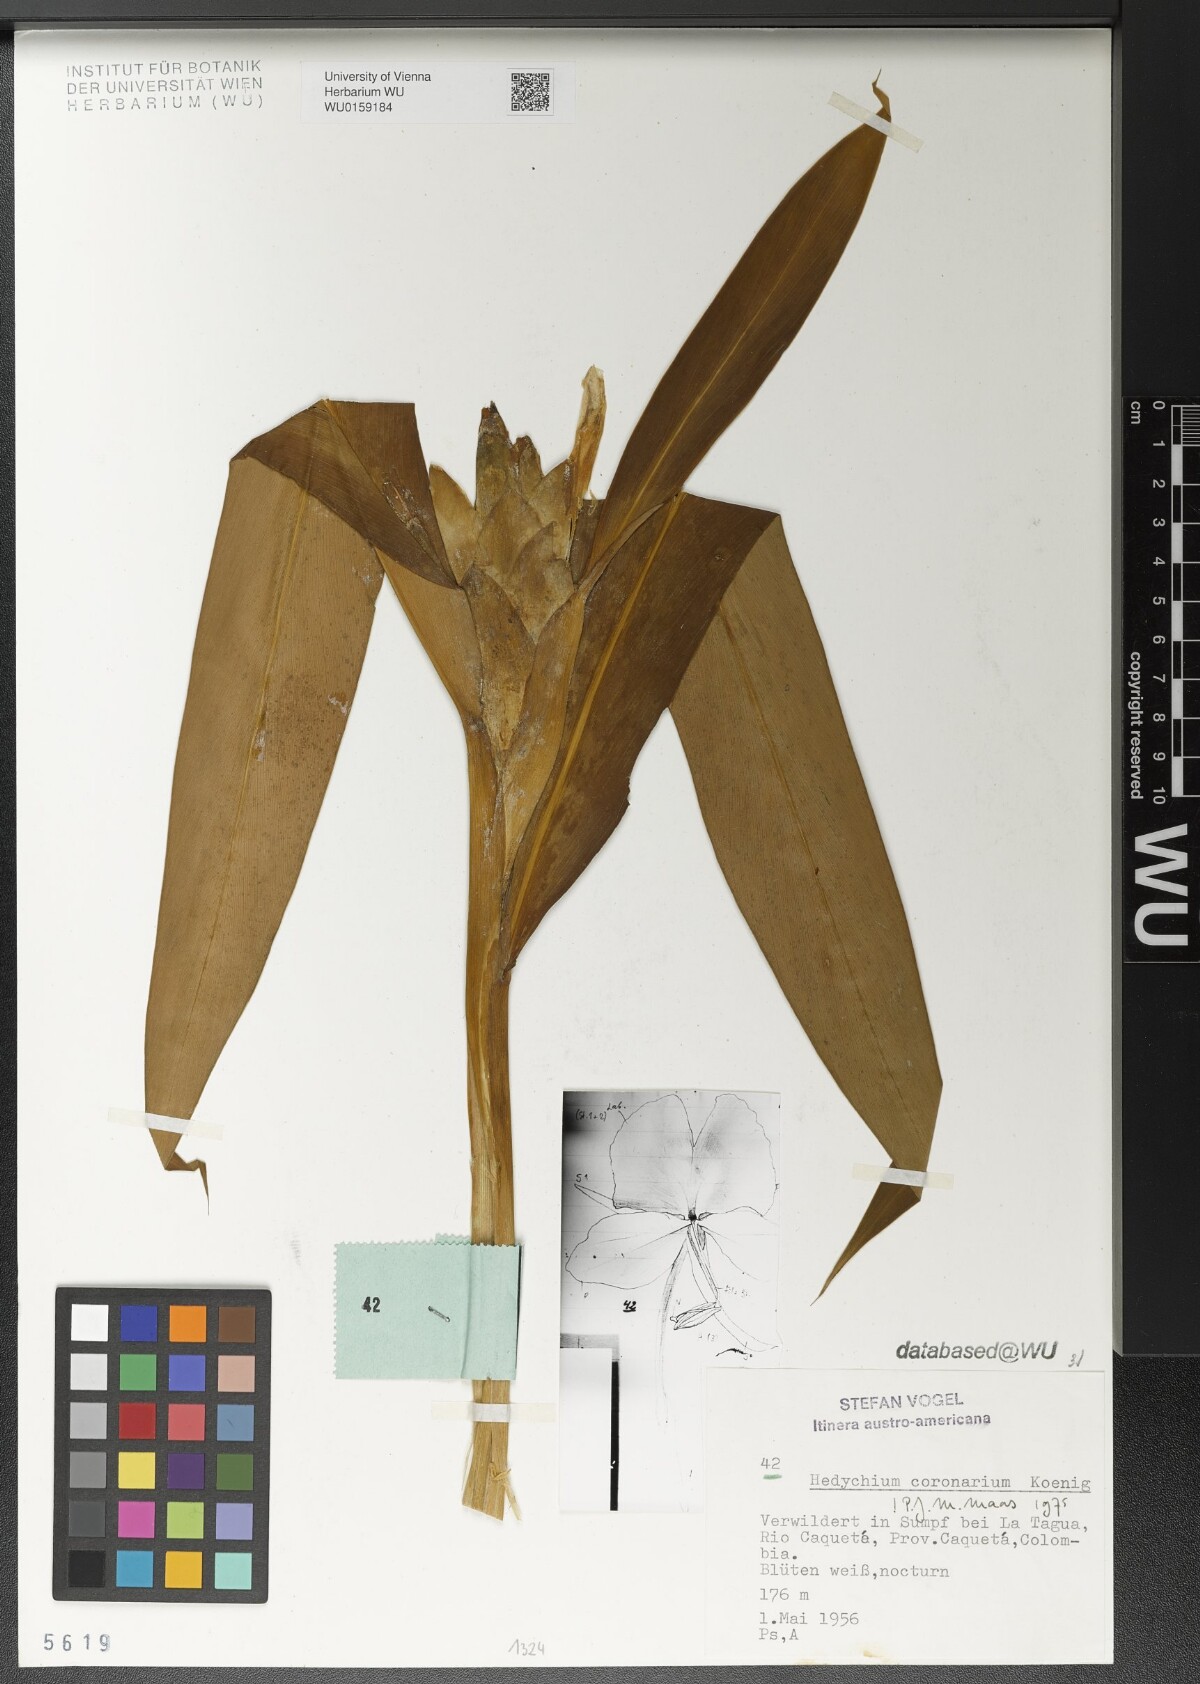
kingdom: Plantae
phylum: Tracheophyta
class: Liliopsida
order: Zingiberales
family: Zingiberaceae
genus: Hedychium
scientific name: Hedychium coronarium
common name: White garland-lily
